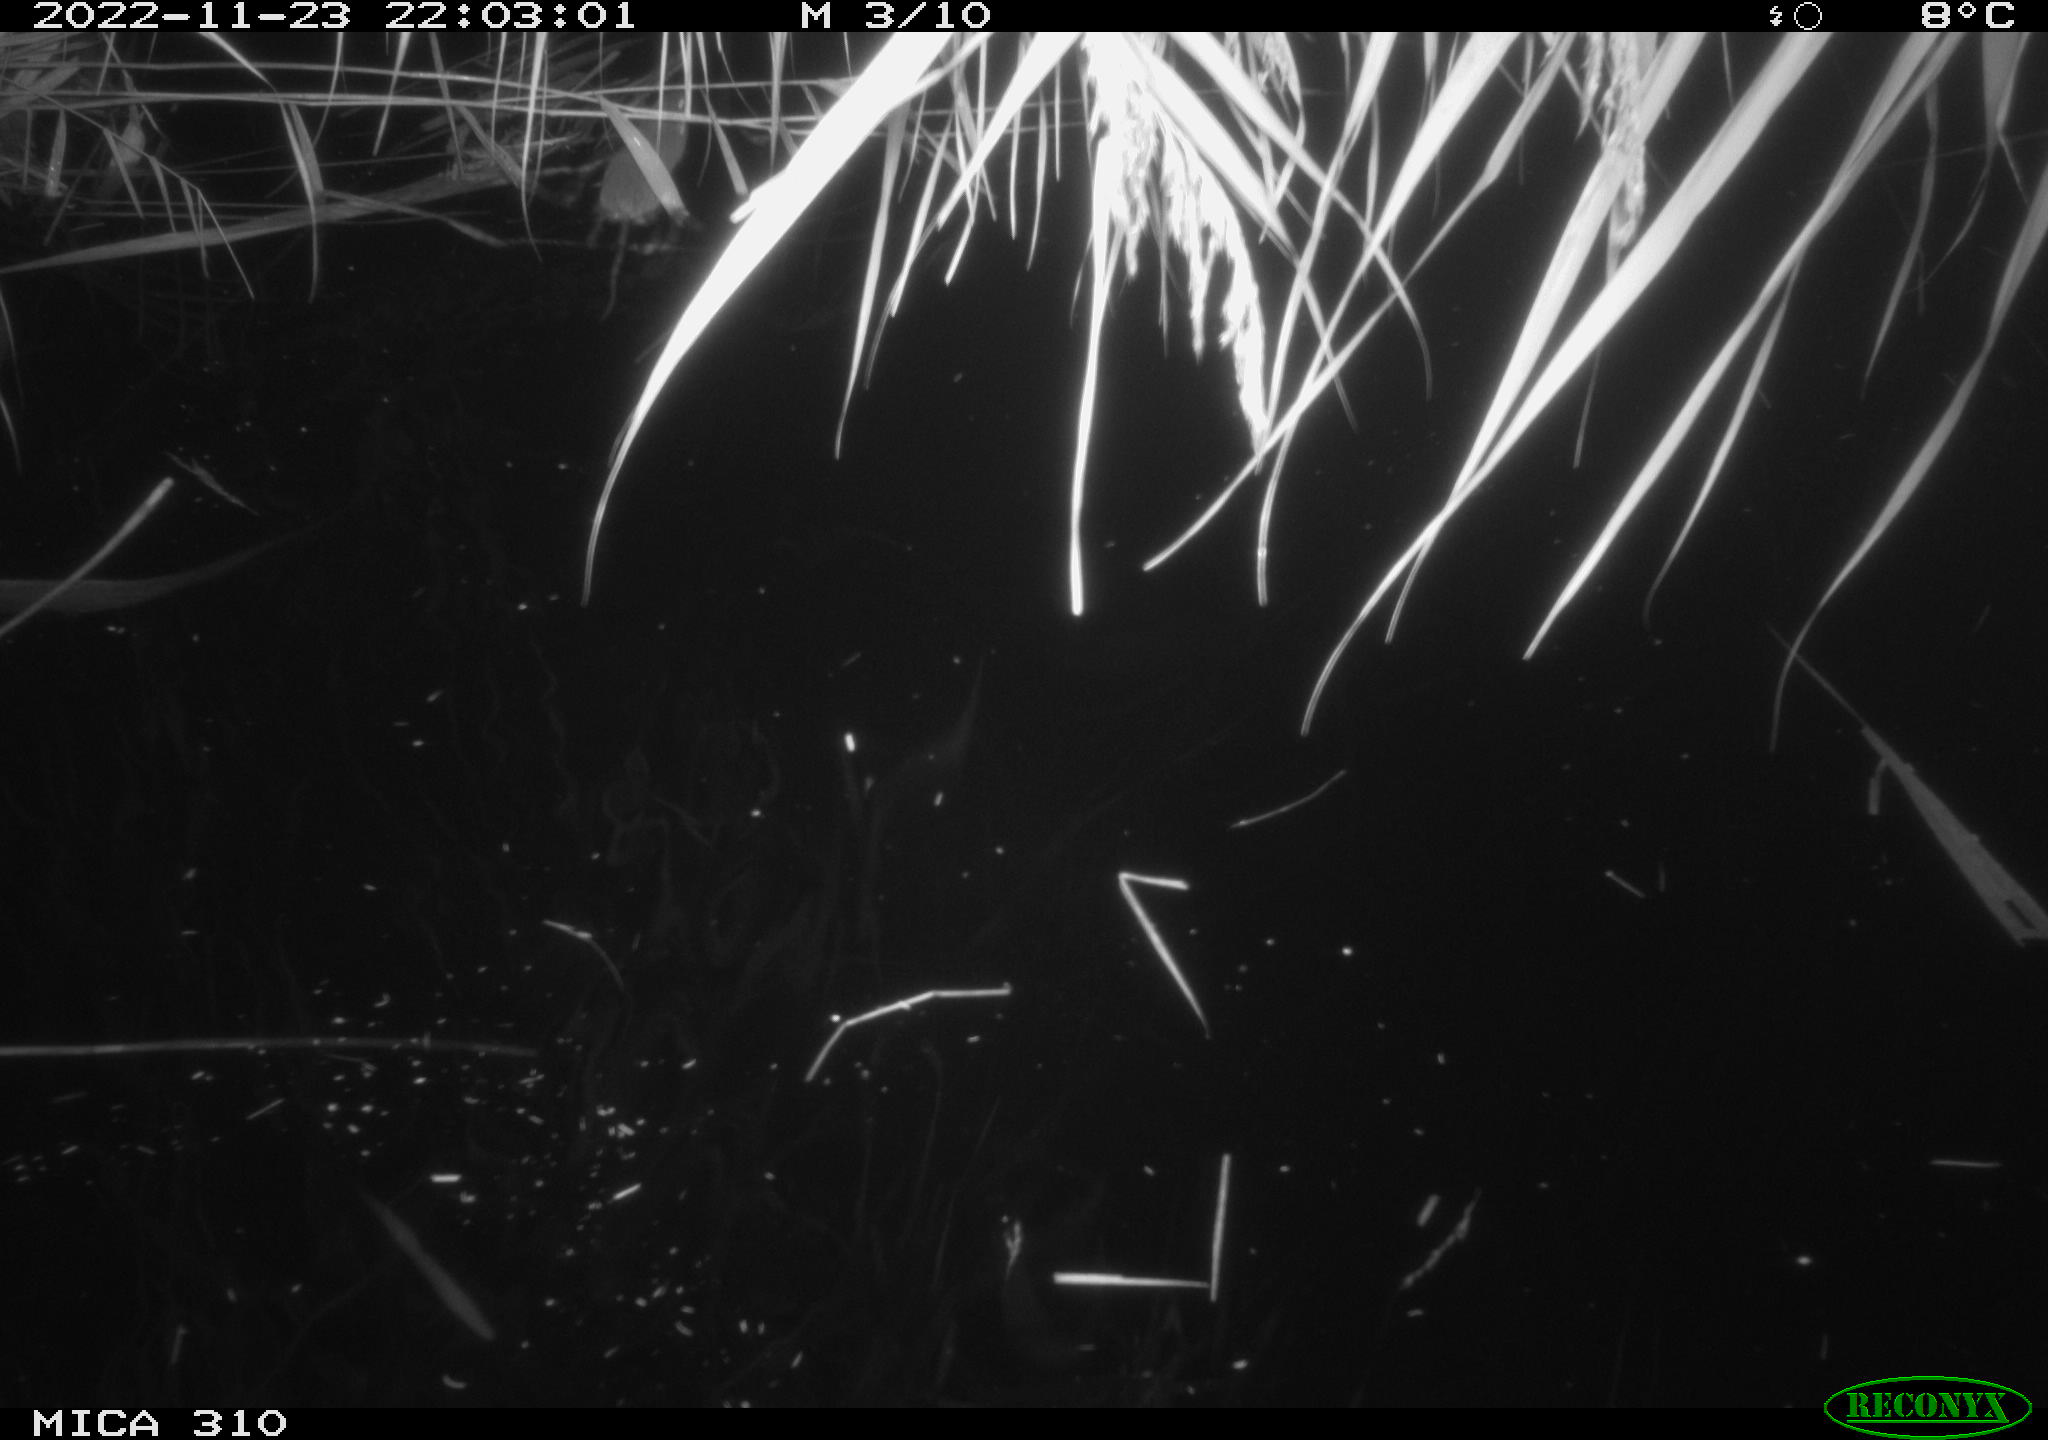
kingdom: Animalia
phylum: Chordata
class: Mammalia
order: Rodentia
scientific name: Rodentia
